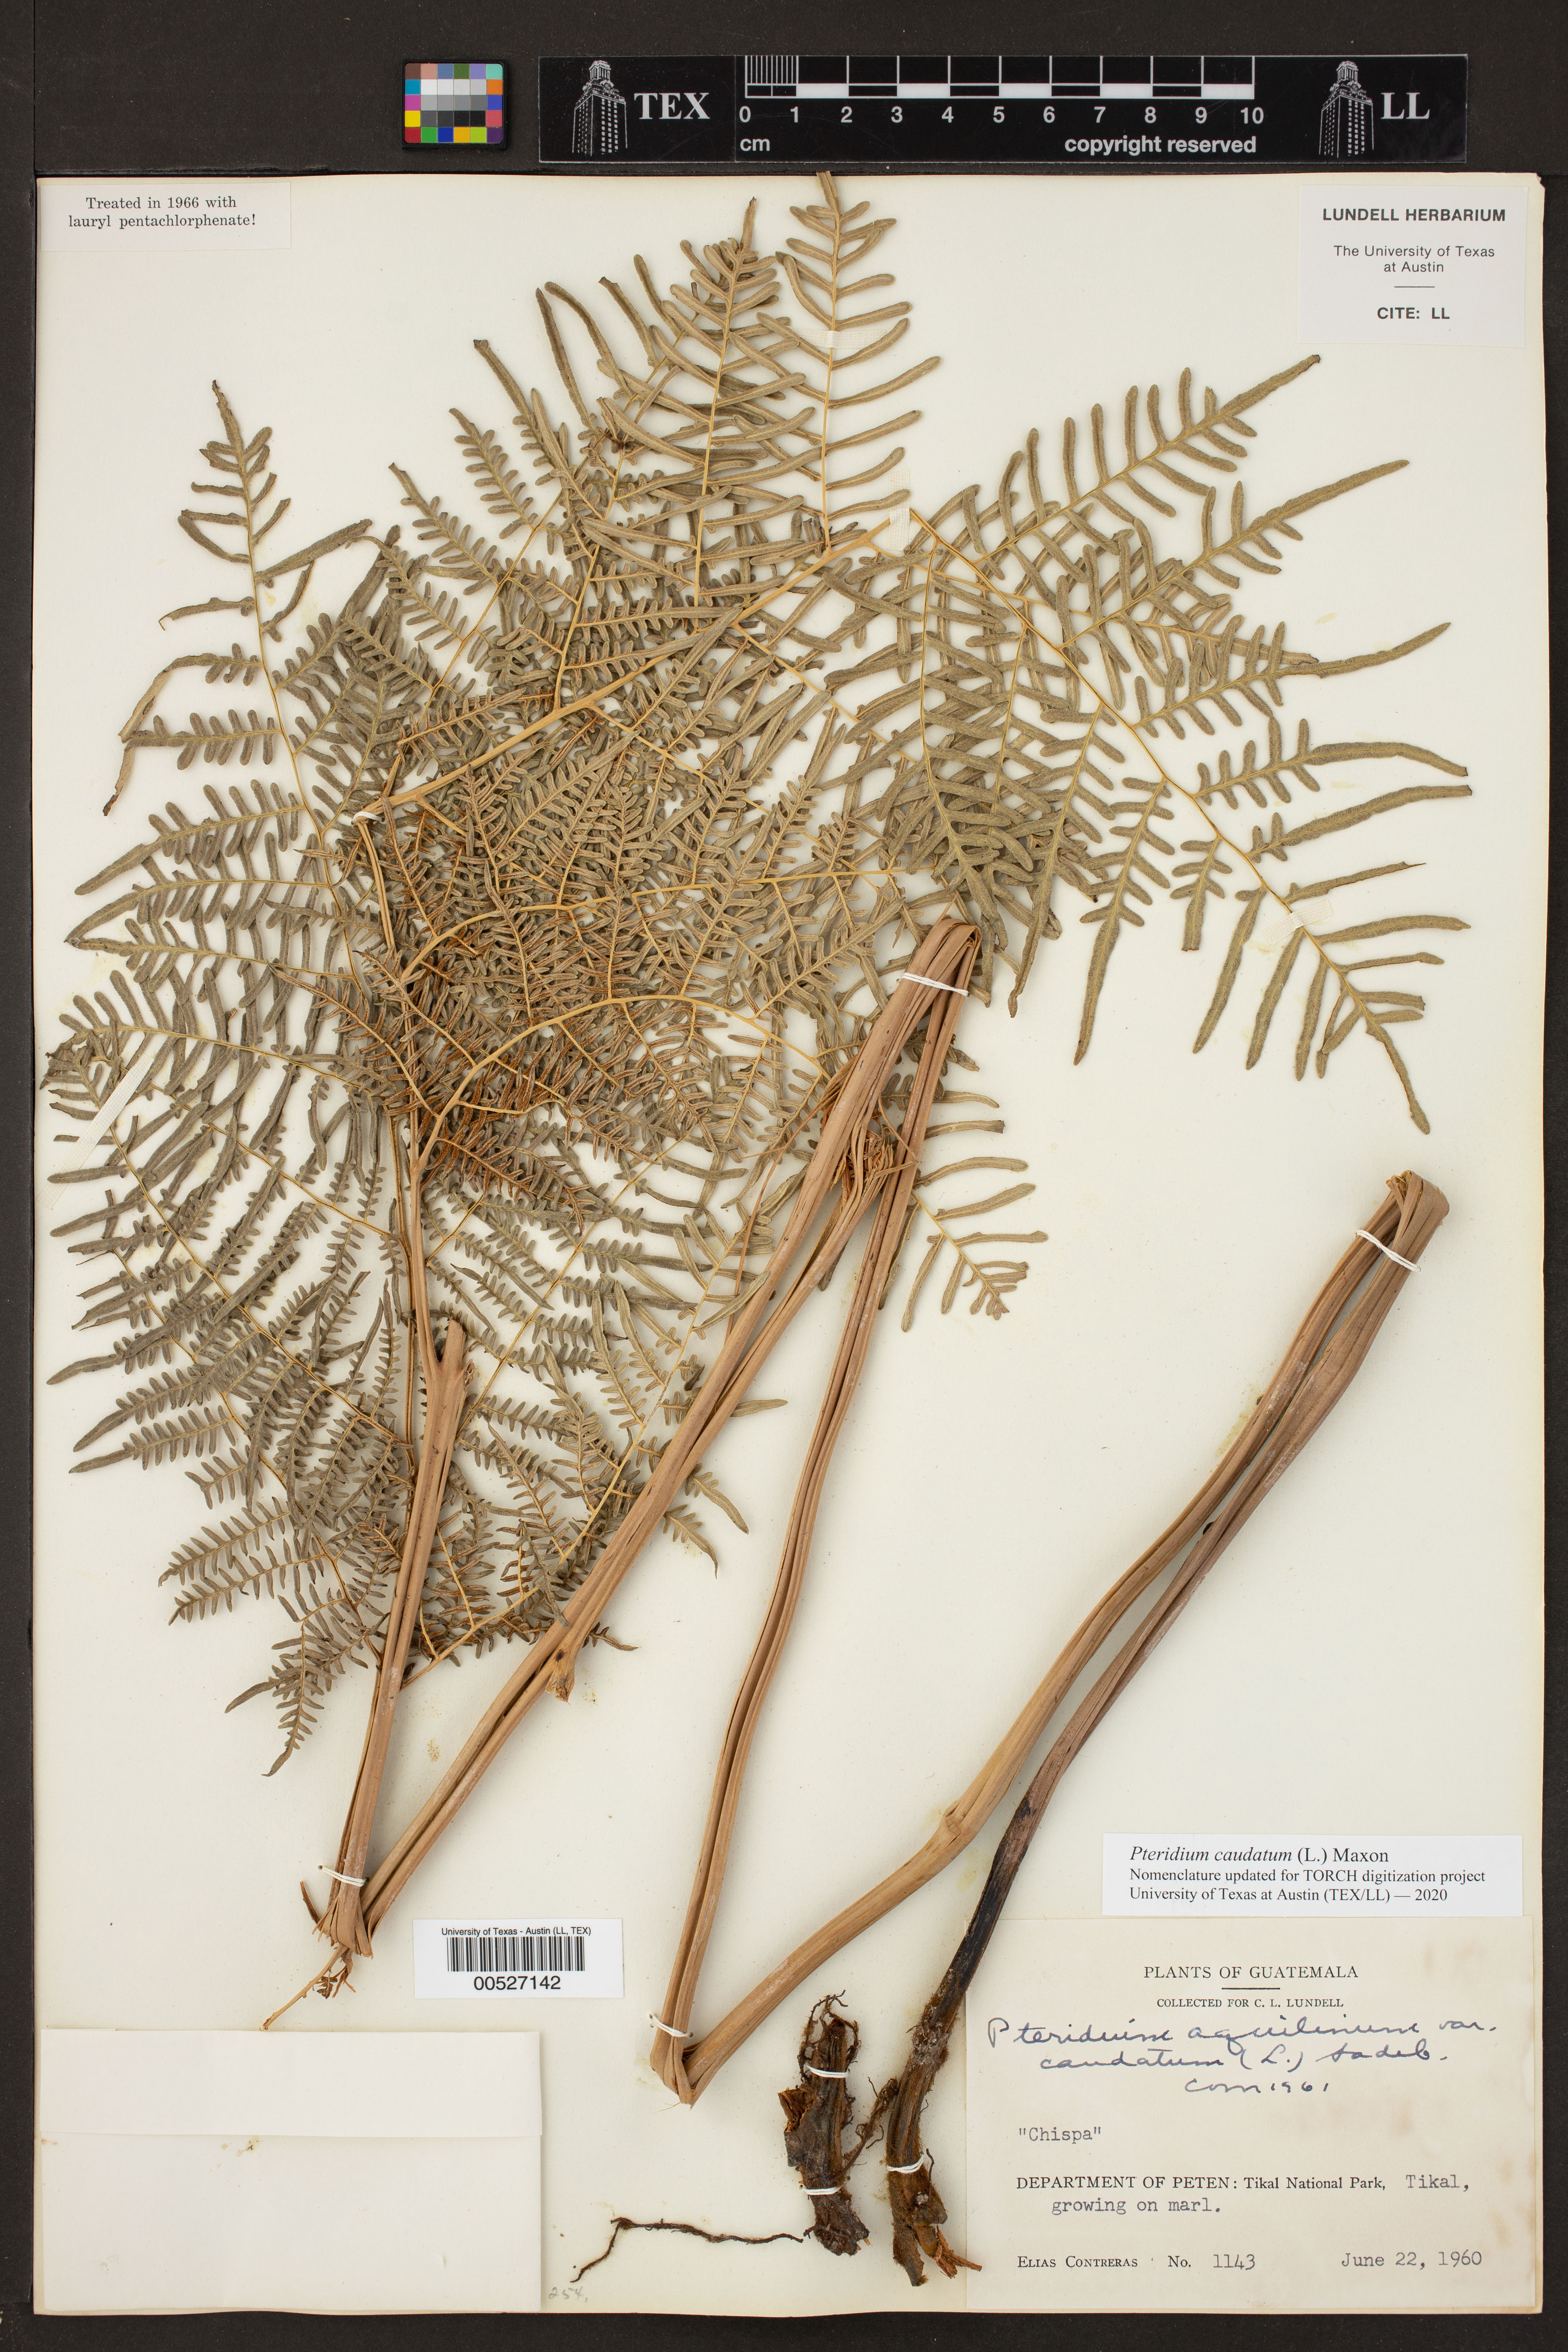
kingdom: Plantae
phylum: Tracheophyta
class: Polypodiopsida
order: Polypodiales
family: Dennstaedtiaceae
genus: Pteridium
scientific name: Pteridium caudatum
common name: Southern bracken fern
